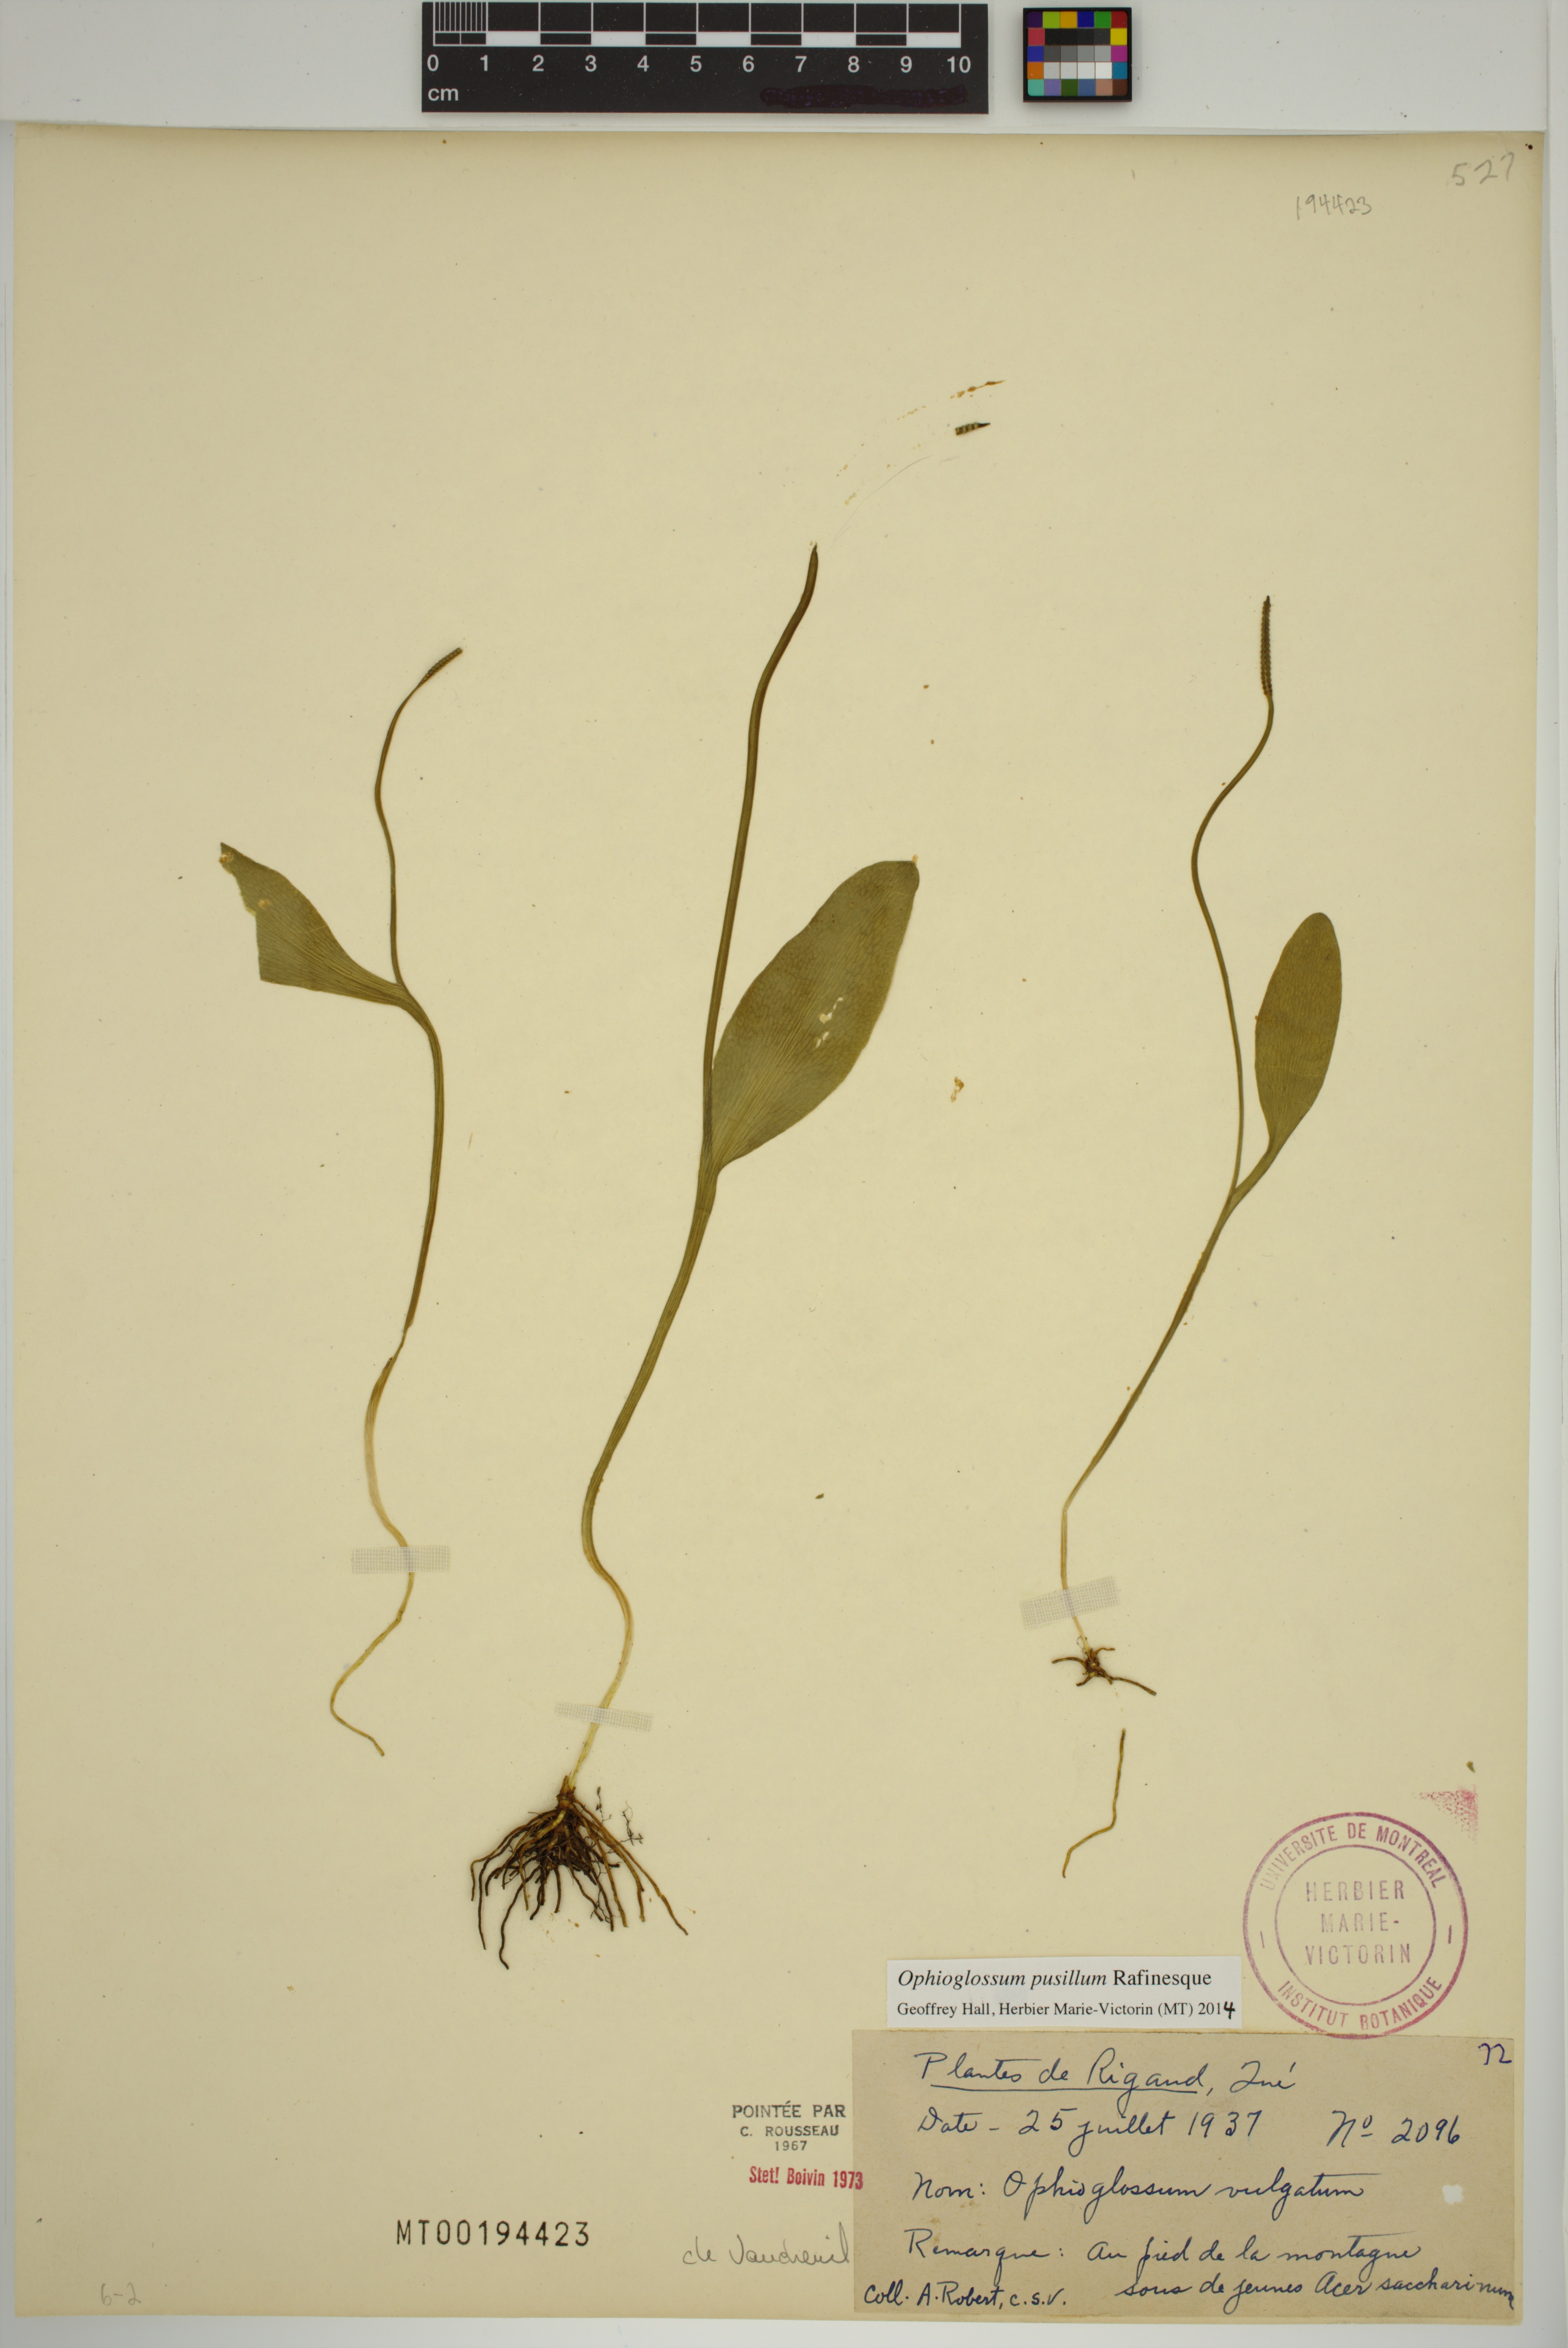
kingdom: Plantae
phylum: Tracheophyta
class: Polypodiopsida
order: Ophioglossales
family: Ophioglossaceae
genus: Ophioglossum
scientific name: Ophioglossum pusillum
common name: Northern adder's-tongue
